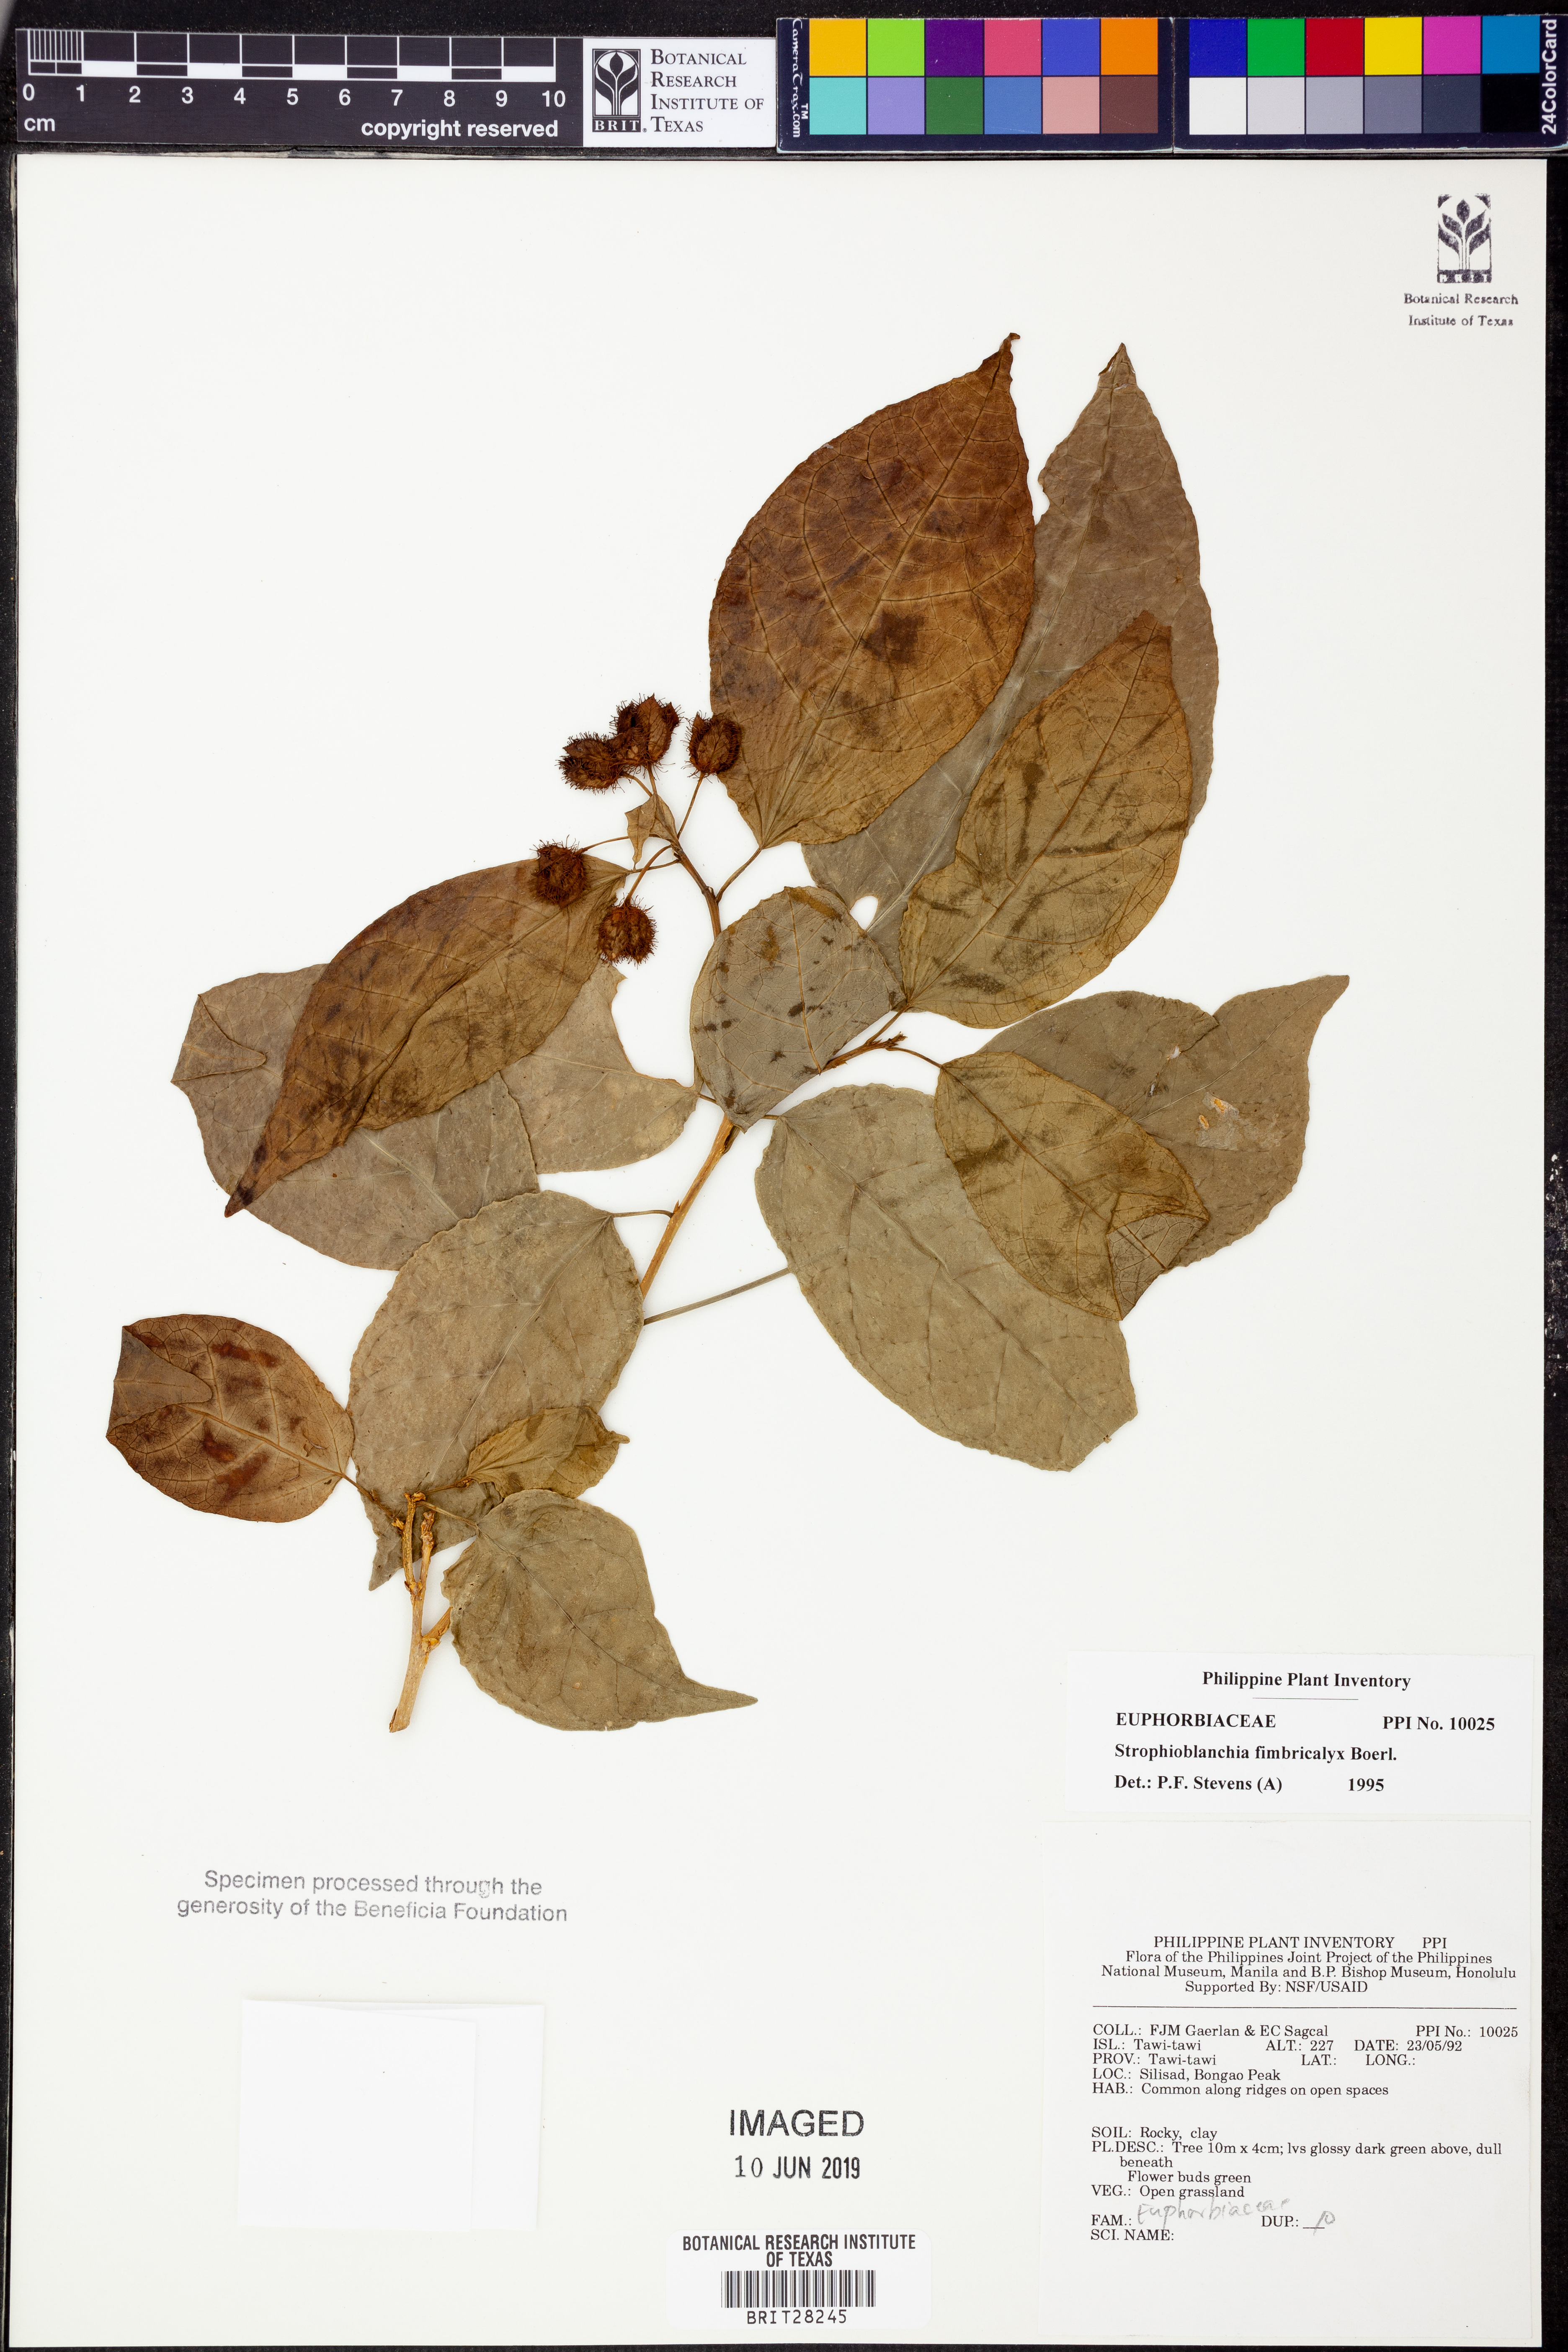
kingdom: Plantae
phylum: Tracheophyta
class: Magnoliopsida
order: Malpighiales
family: Euphorbiaceae
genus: Strophioblachia
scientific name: Strophioblachia fimbricalyx
